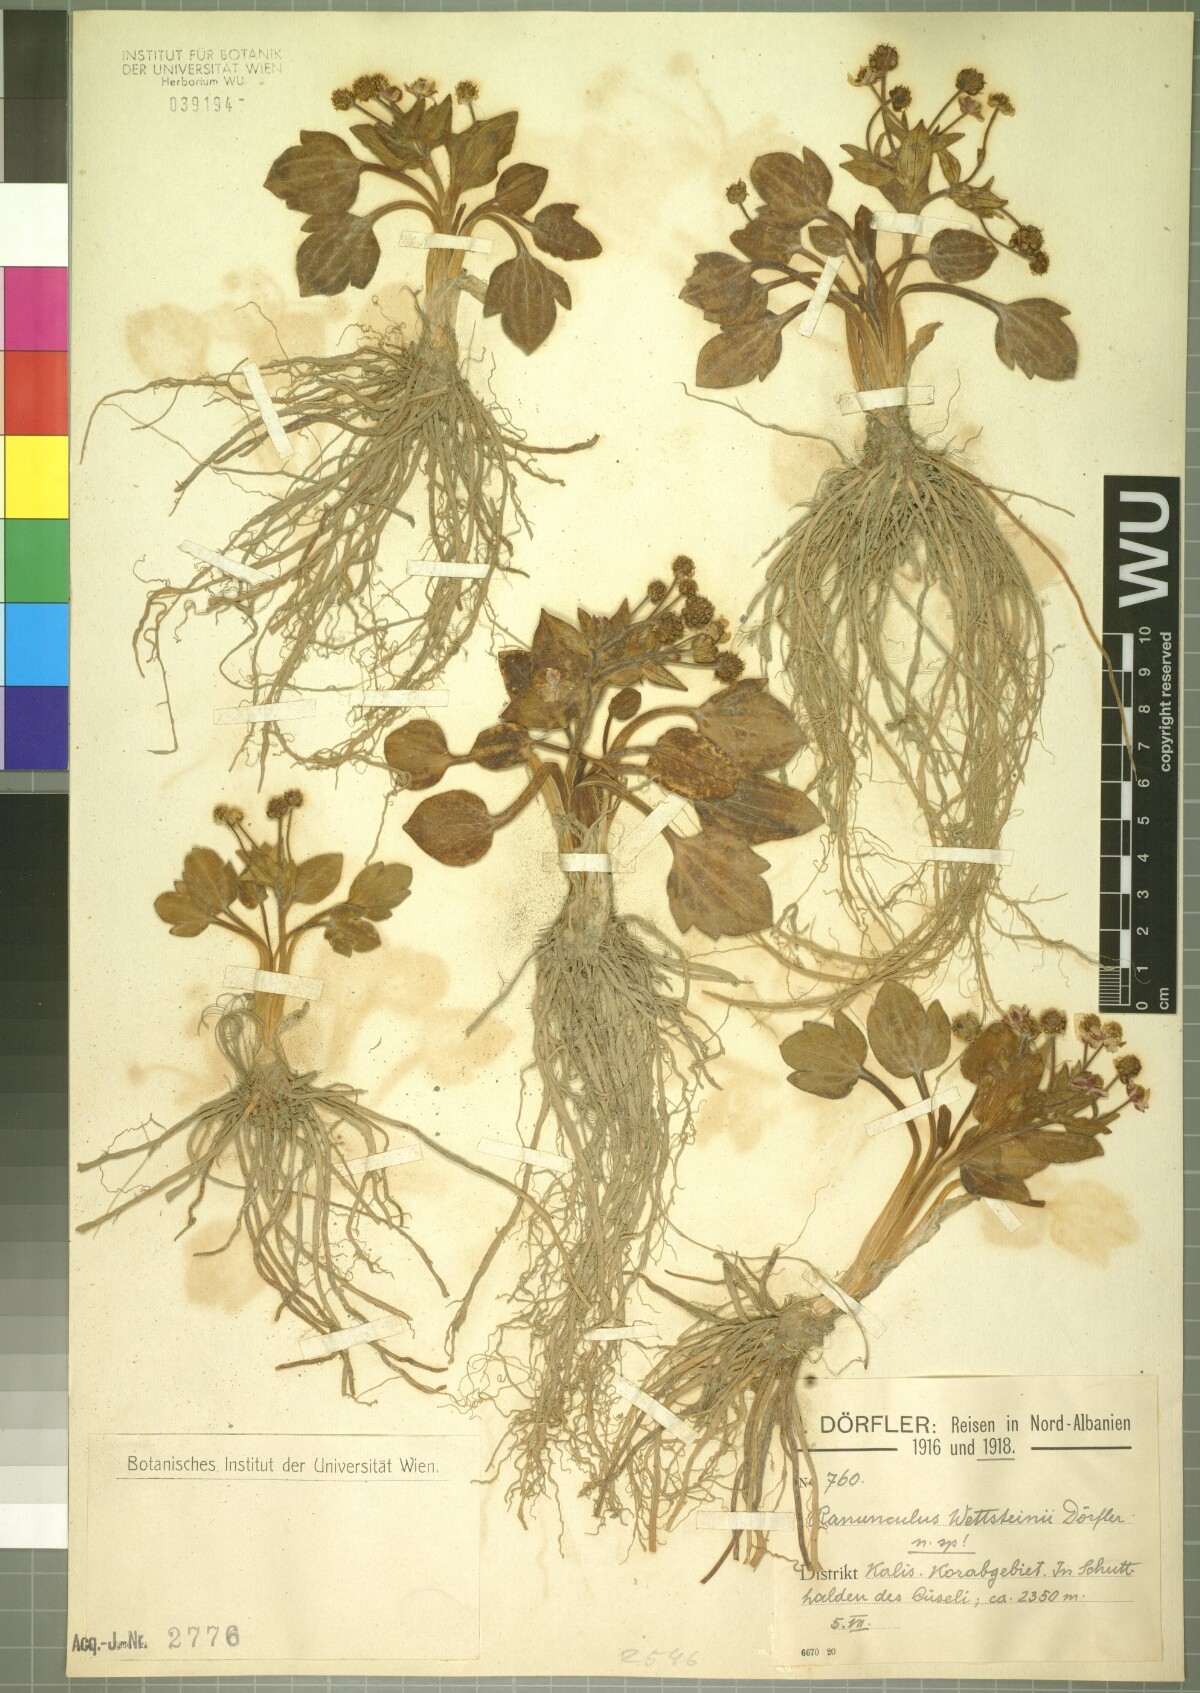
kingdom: Plantae
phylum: Tracheophyta
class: Magnoliopsida
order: Ranunculales
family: Ranunculaceae
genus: Ranunculus
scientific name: Ranunculus wettsteinii
